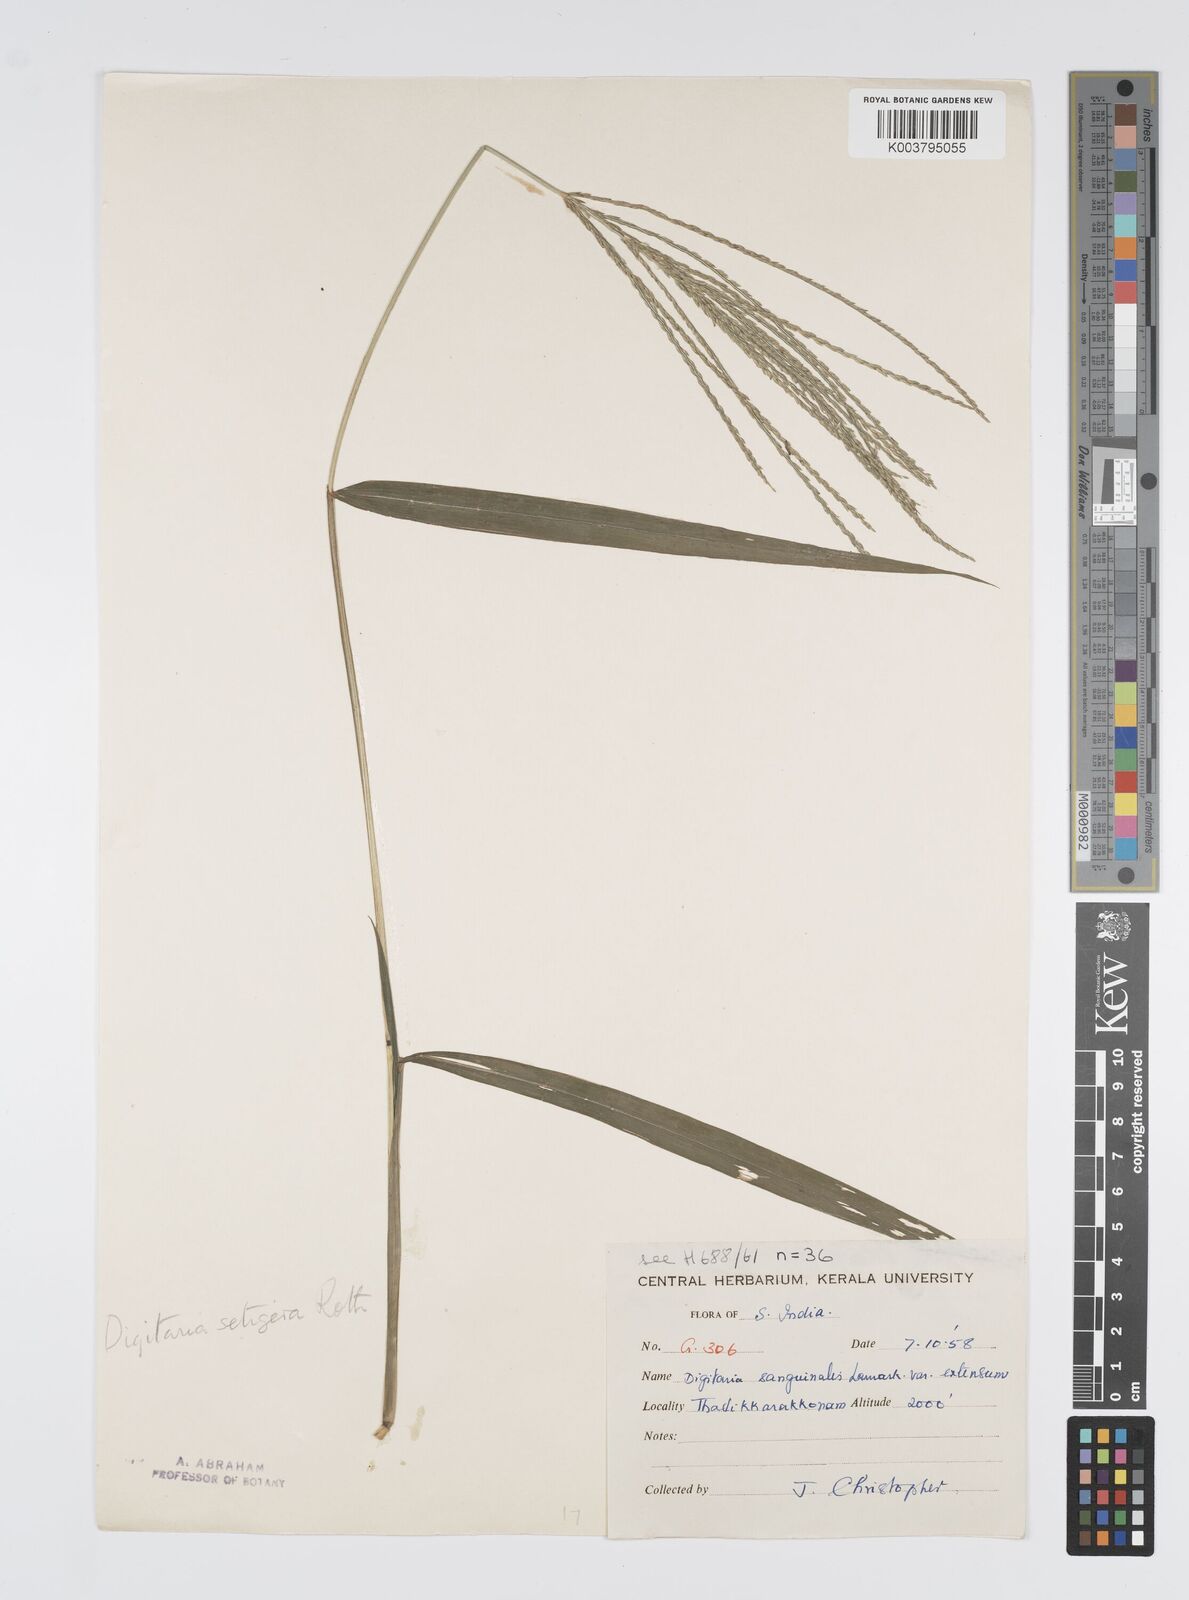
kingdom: Plantae
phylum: Tracheophyta
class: Liliopsida
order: Poales
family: Poaceae
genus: Digitaria
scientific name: Digitaria setigera
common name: East indian crabgrass
